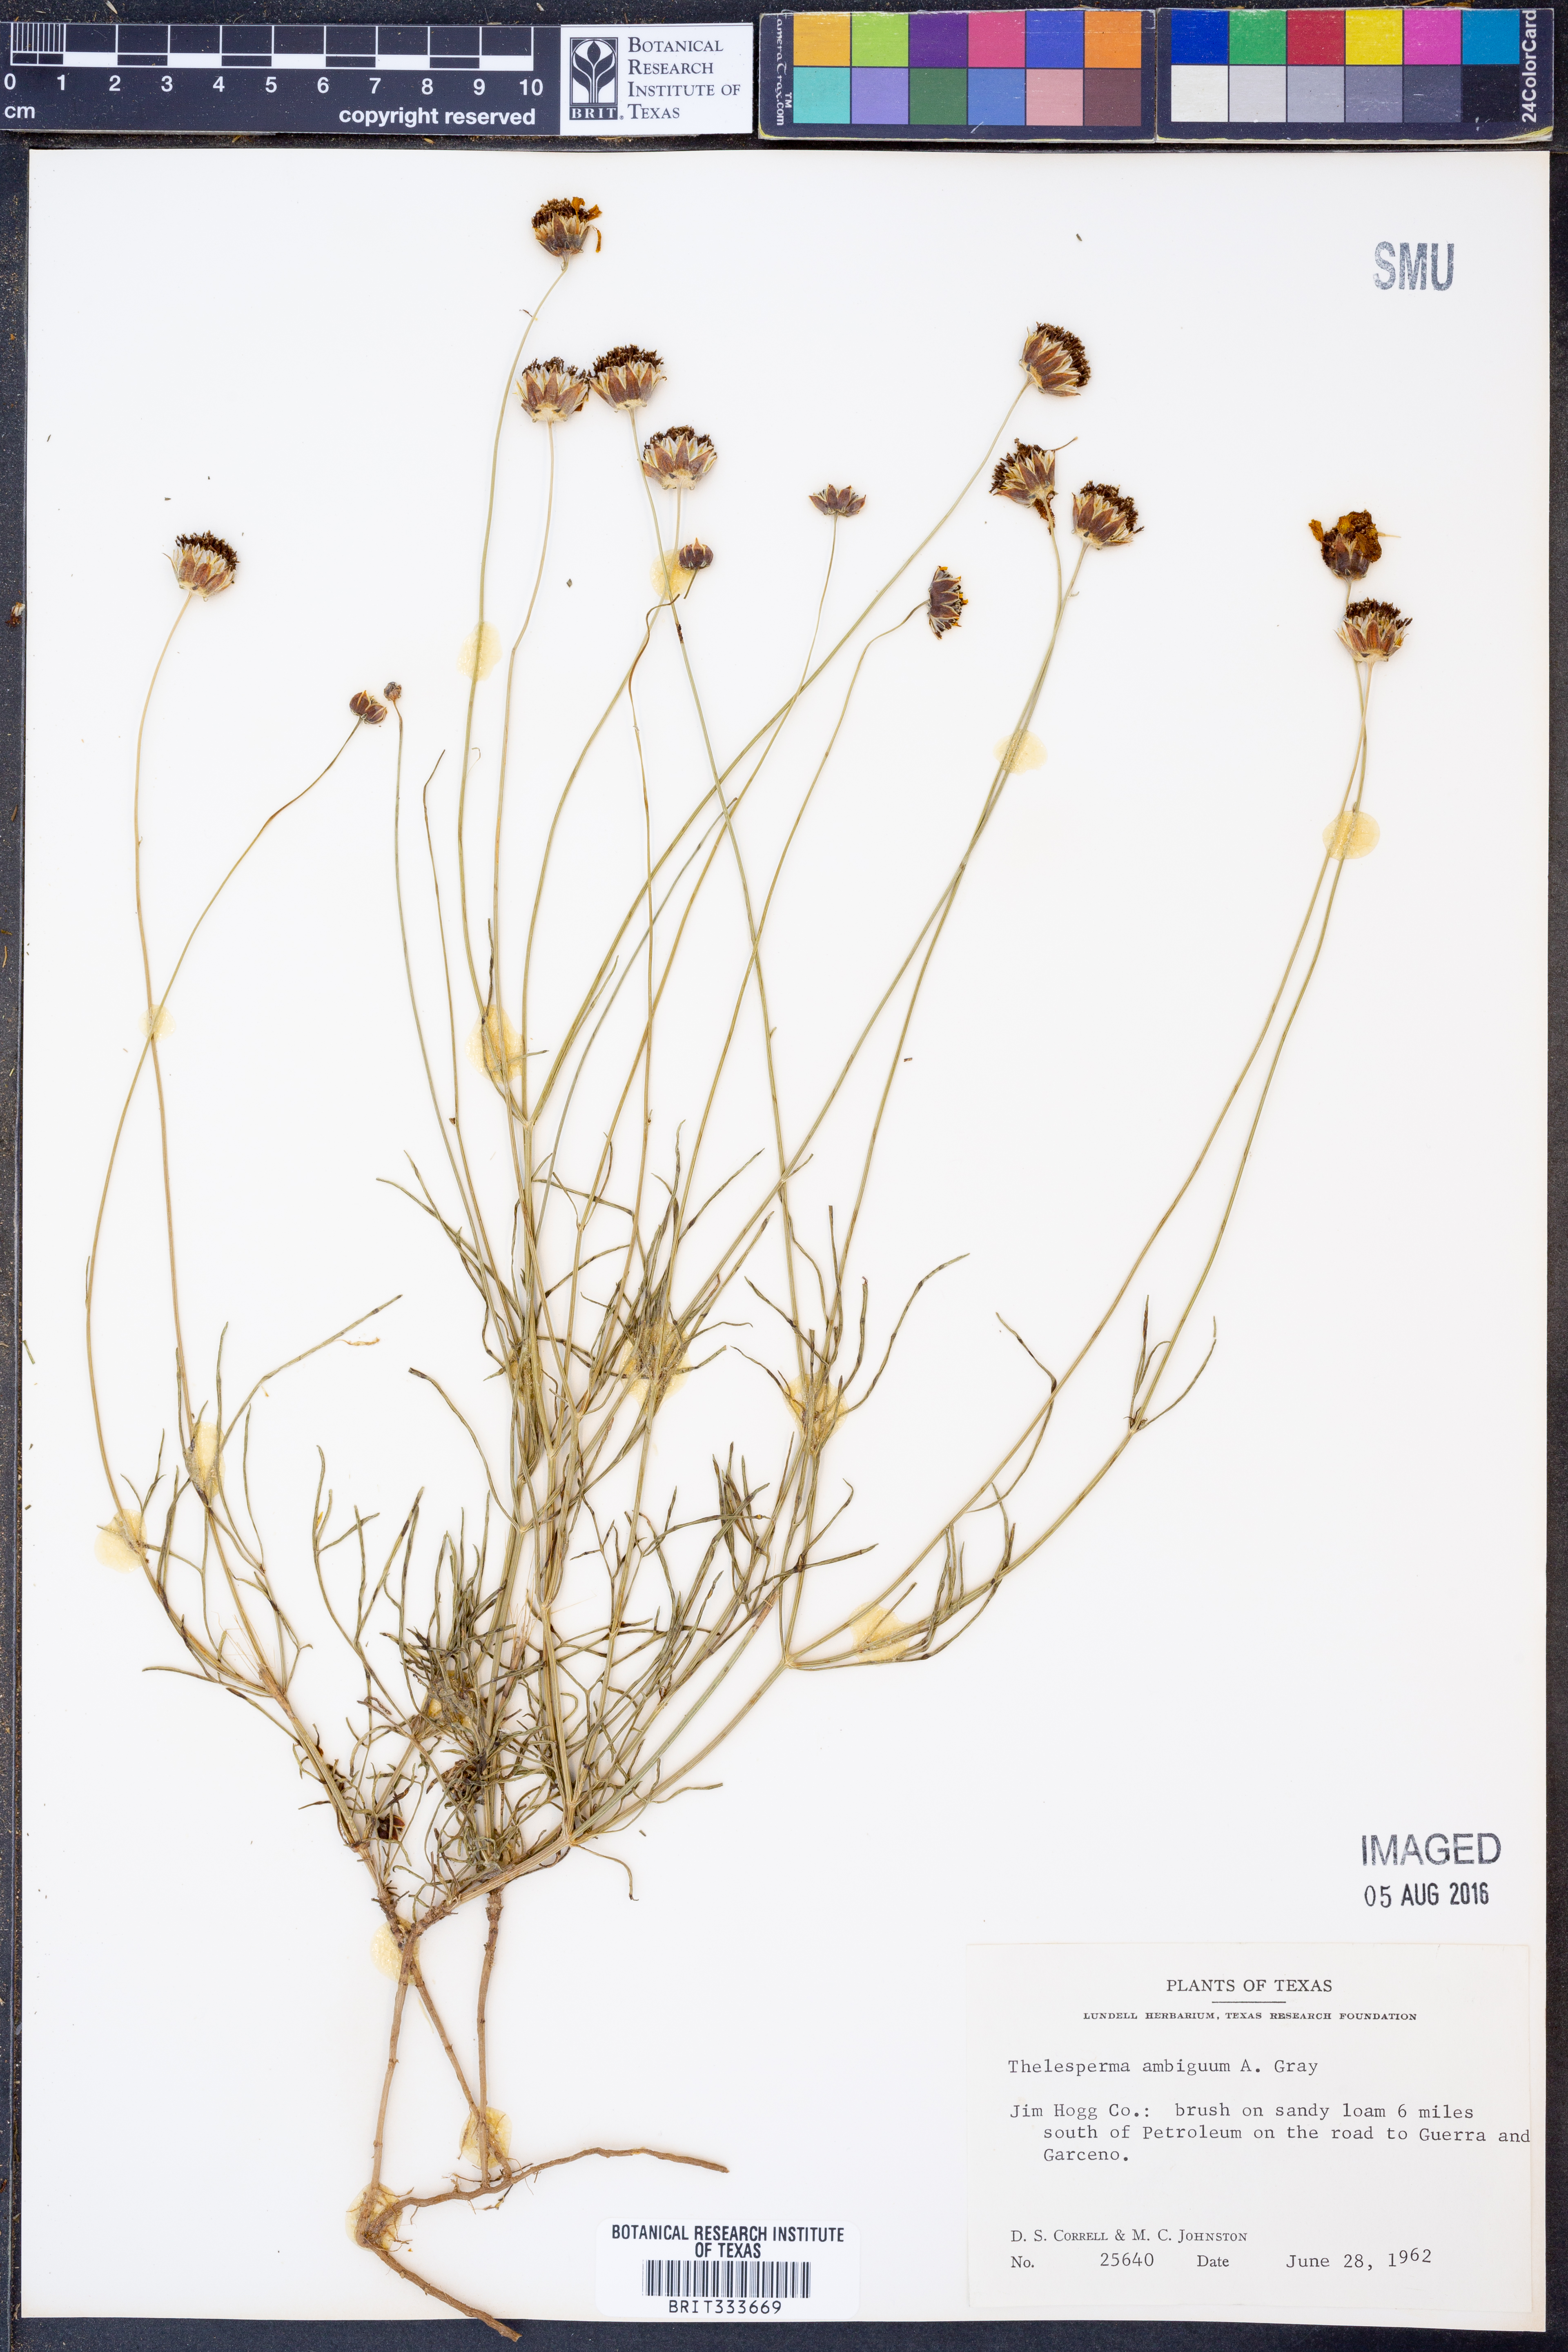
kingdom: Plantae
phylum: Tracheophyta
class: Magnoliopsida
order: Asterales
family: Asteraceae
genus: Thelesperma
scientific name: Thelesperma ambiguum
